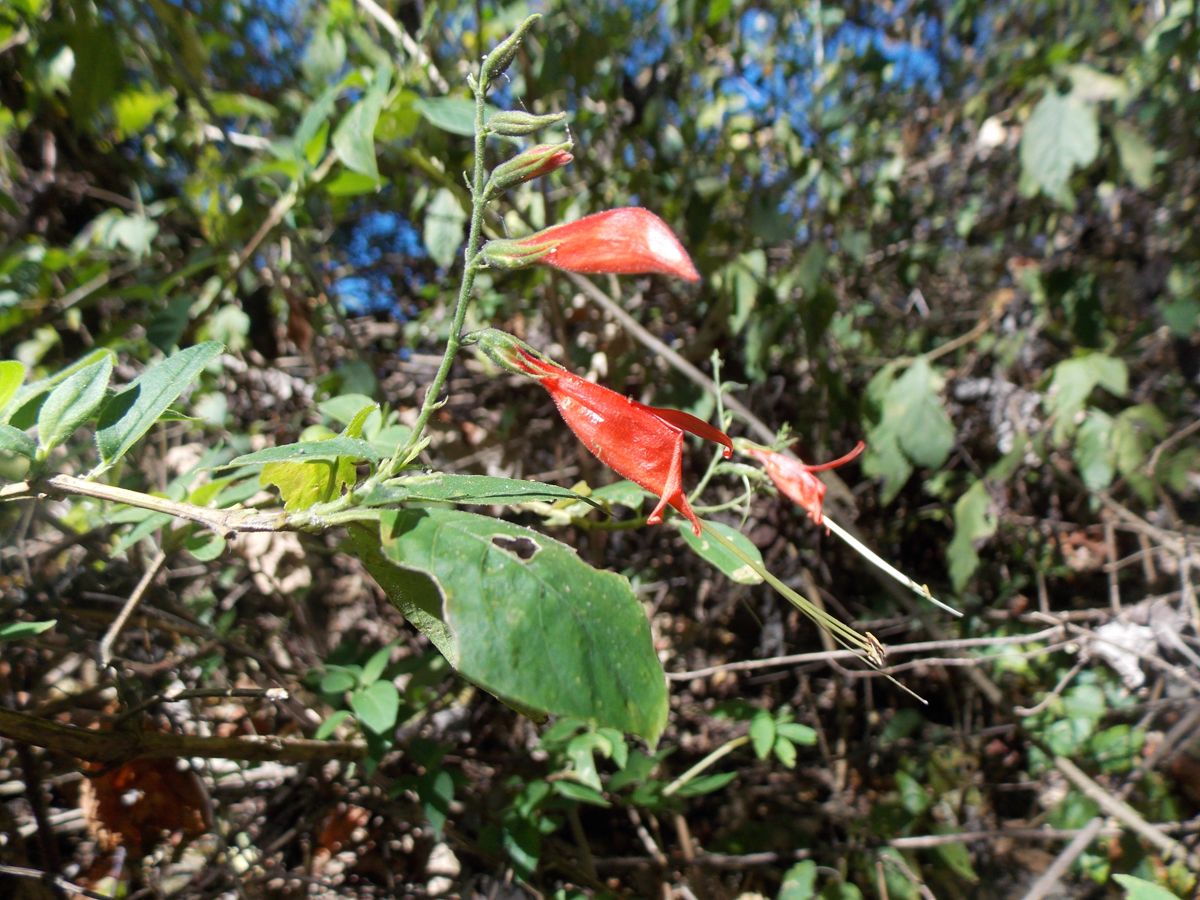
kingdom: Plantae
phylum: Tracheophyta
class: Magnoliopsida
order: Lamiales
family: Acanthaceae
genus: Anisacanthus
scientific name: Anisacanthus tetracaulis
